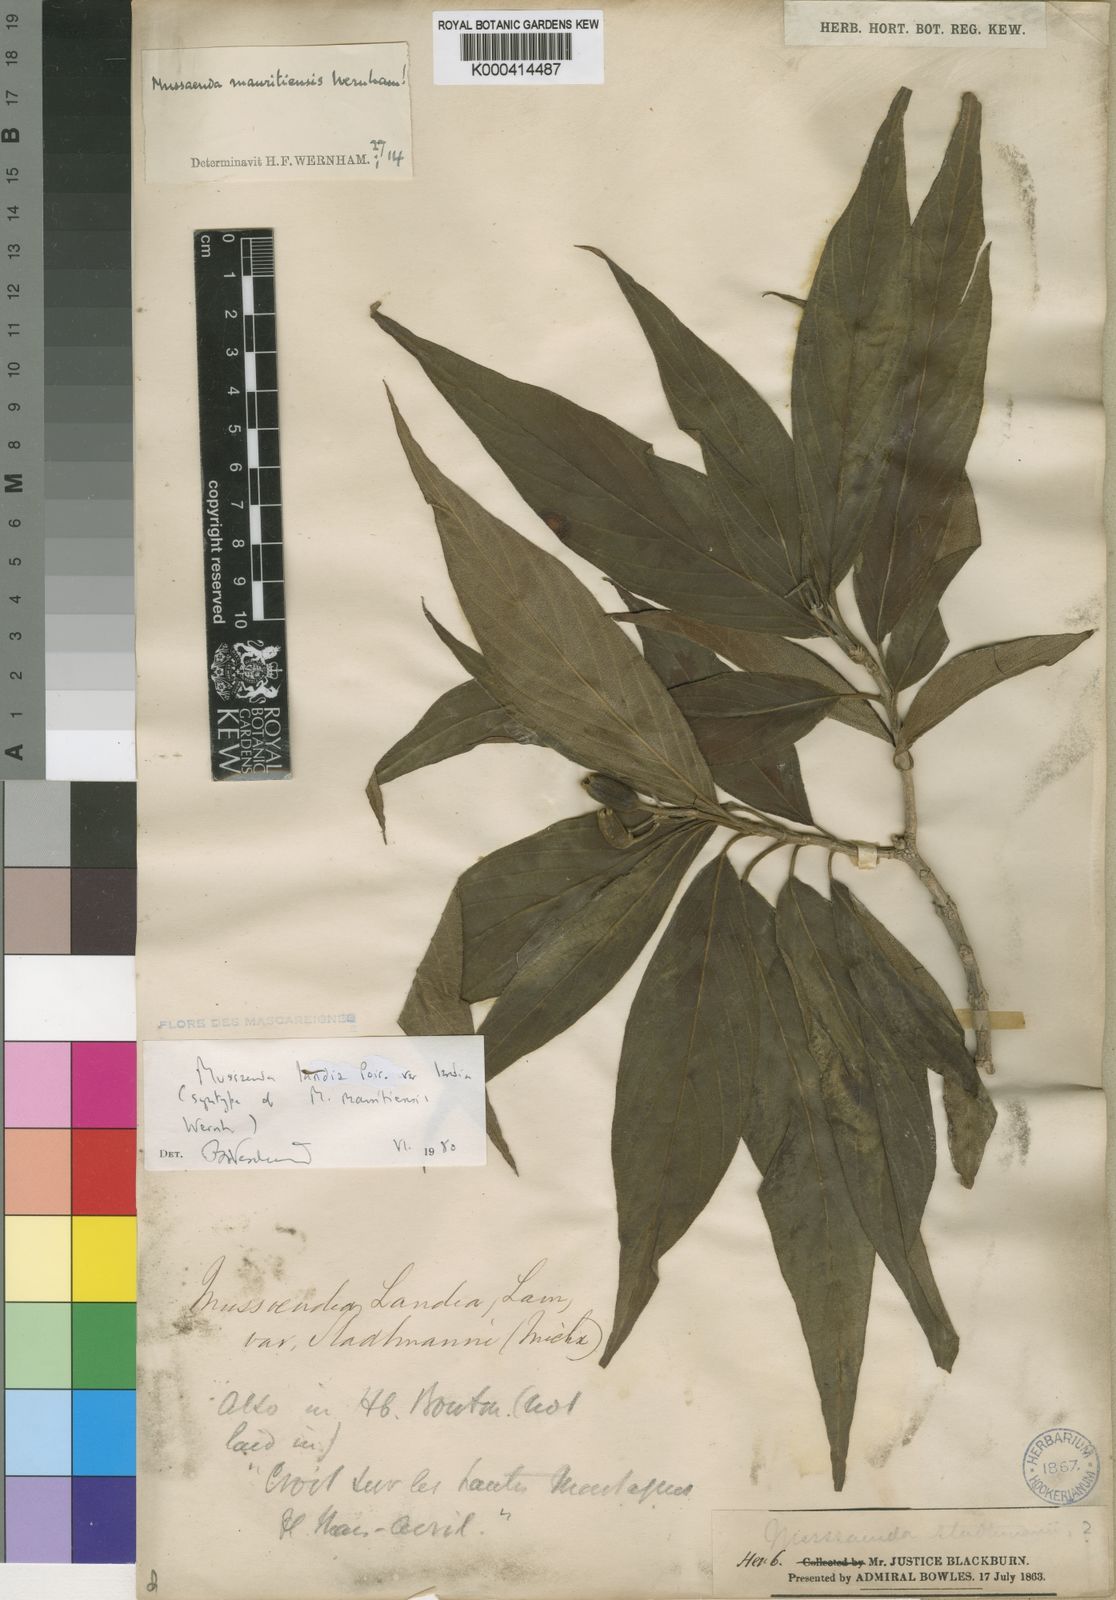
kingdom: Plantae
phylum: Tracheophyta
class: Magnoliopsida
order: Gentianales
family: Rubiaceae
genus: Bremeria
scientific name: Bremeria landia
